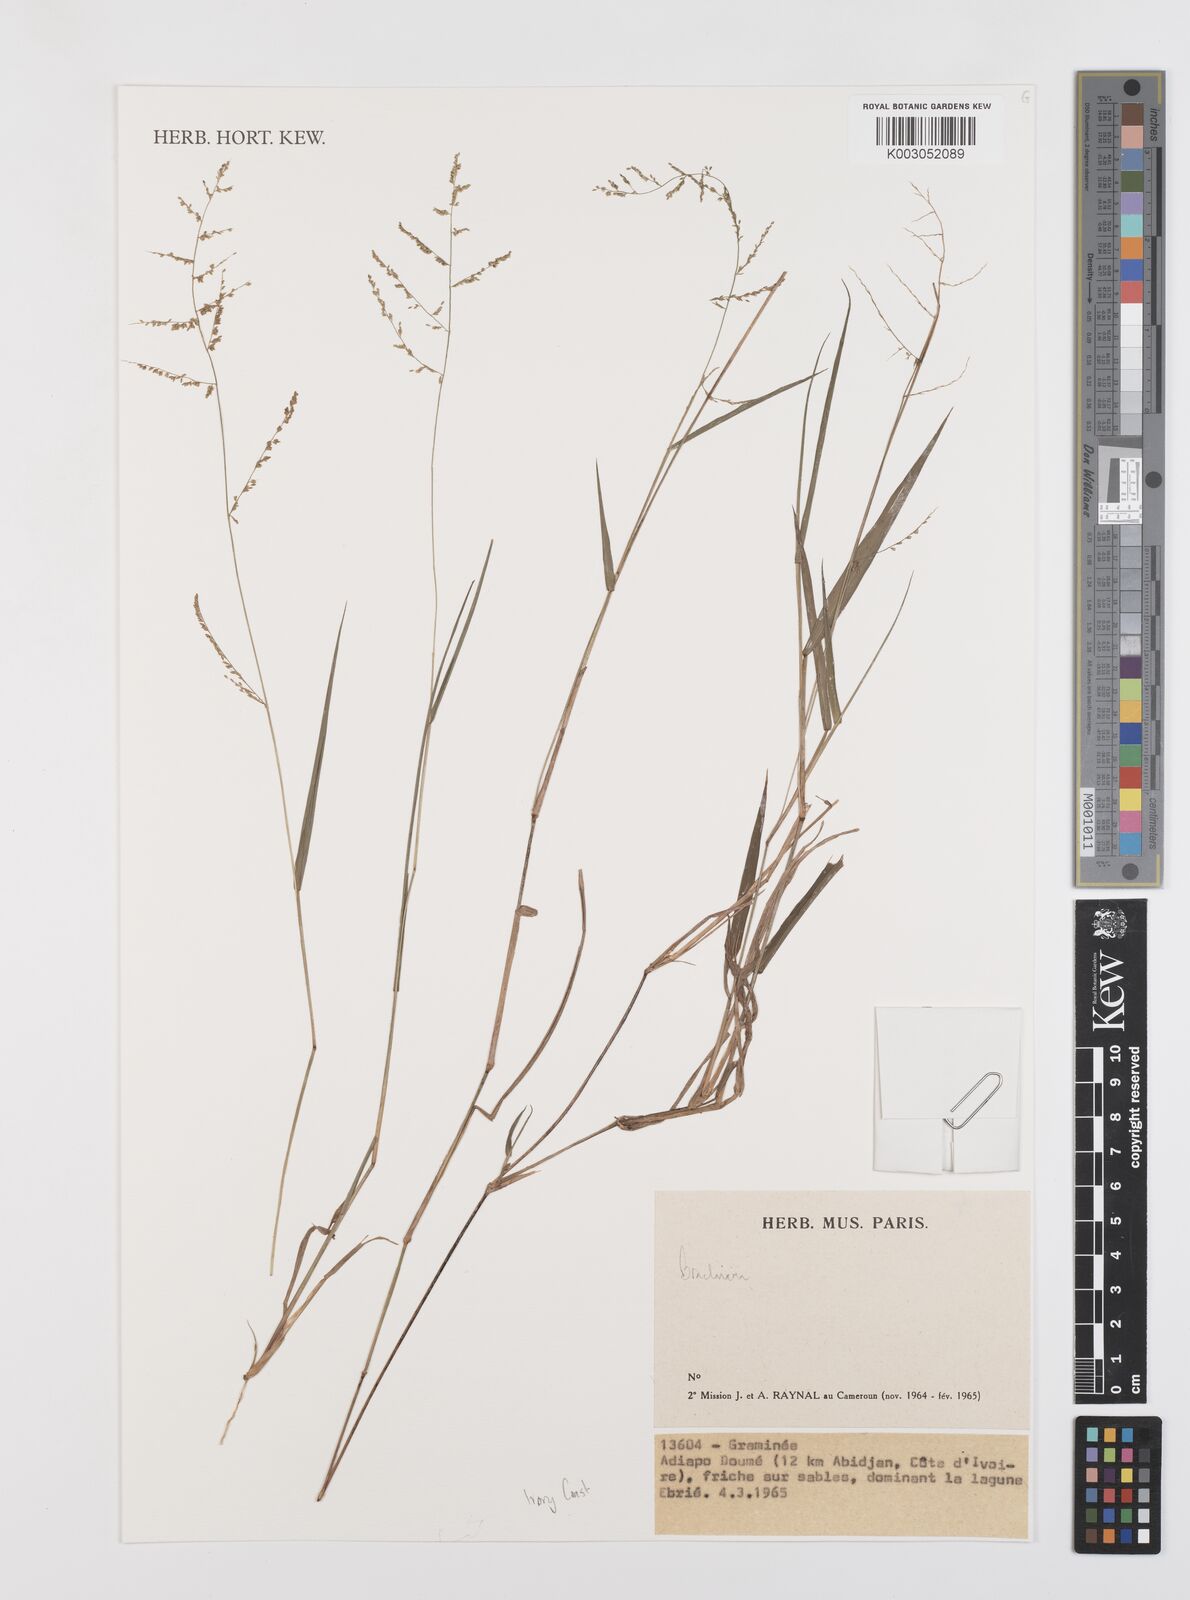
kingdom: Plantae
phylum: Tracheophyta
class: Liliopsida
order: Poales
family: Poaceae
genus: Brachiaria
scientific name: Brachiaria
